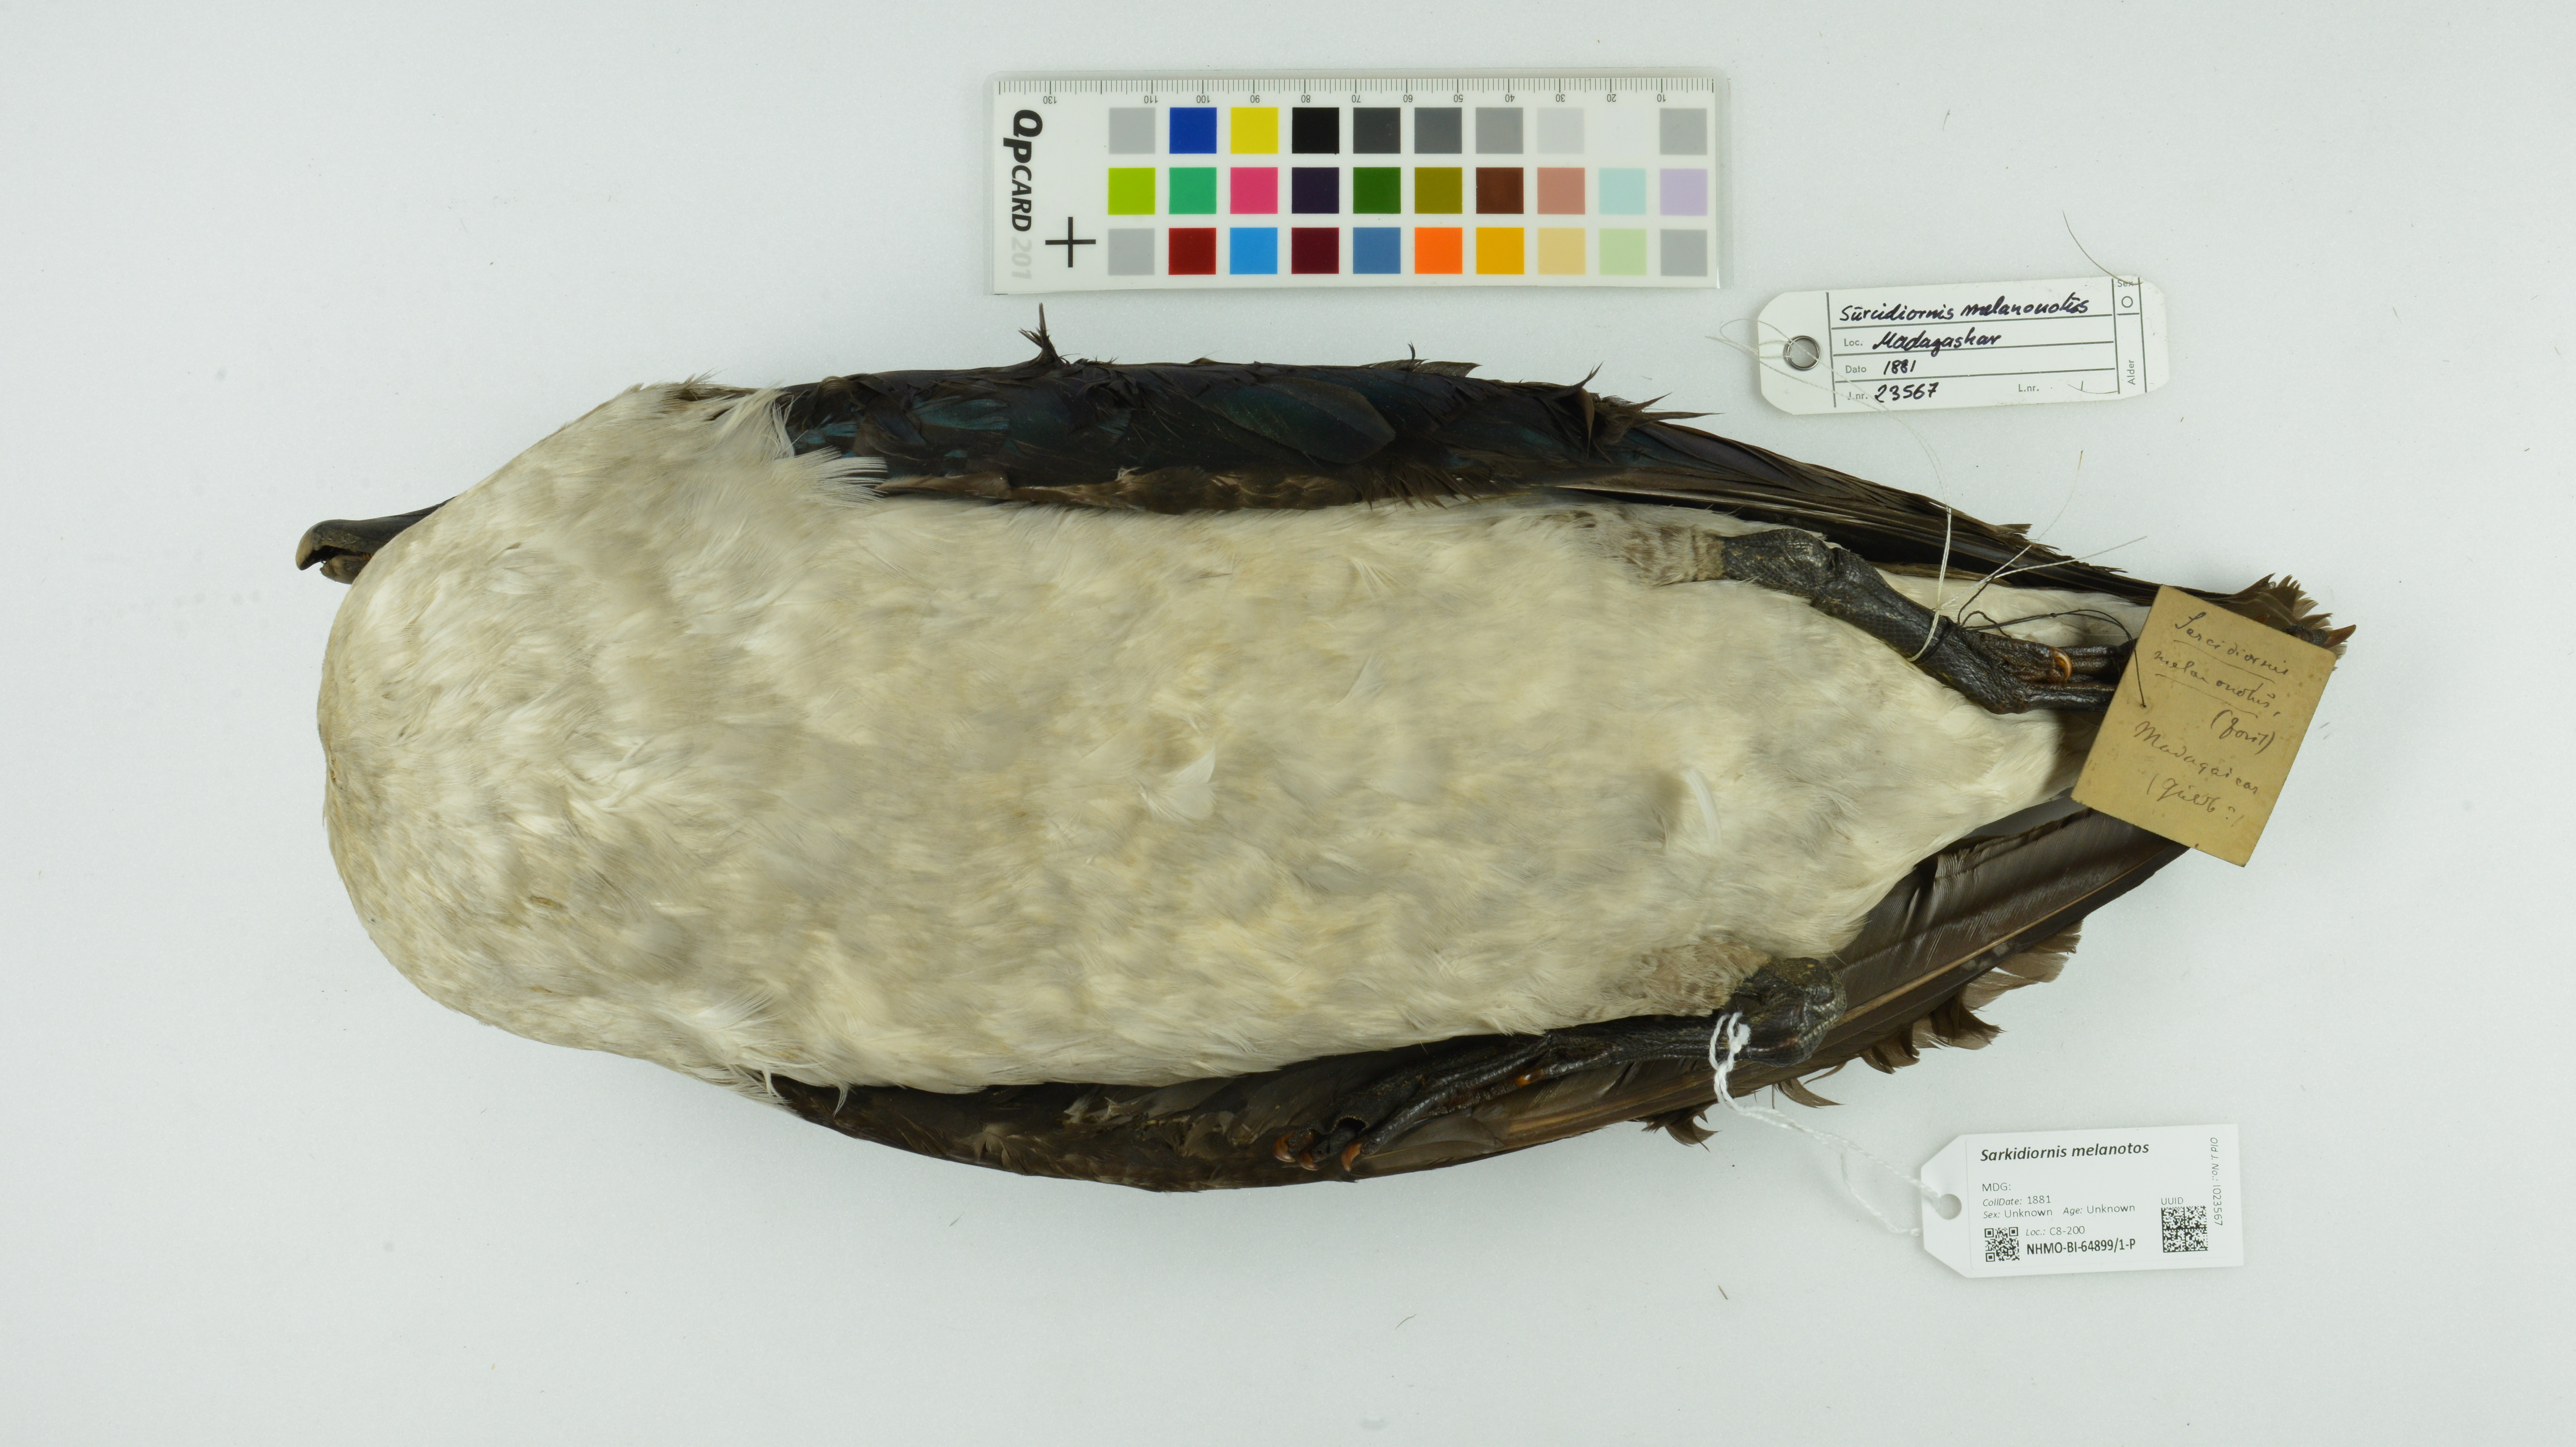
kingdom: Animalia
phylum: Chordata
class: Aves
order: Anseriformes
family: Anatidae
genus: Sarkidiornis
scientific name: Sarkidiornis melanotos
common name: Comb duck
